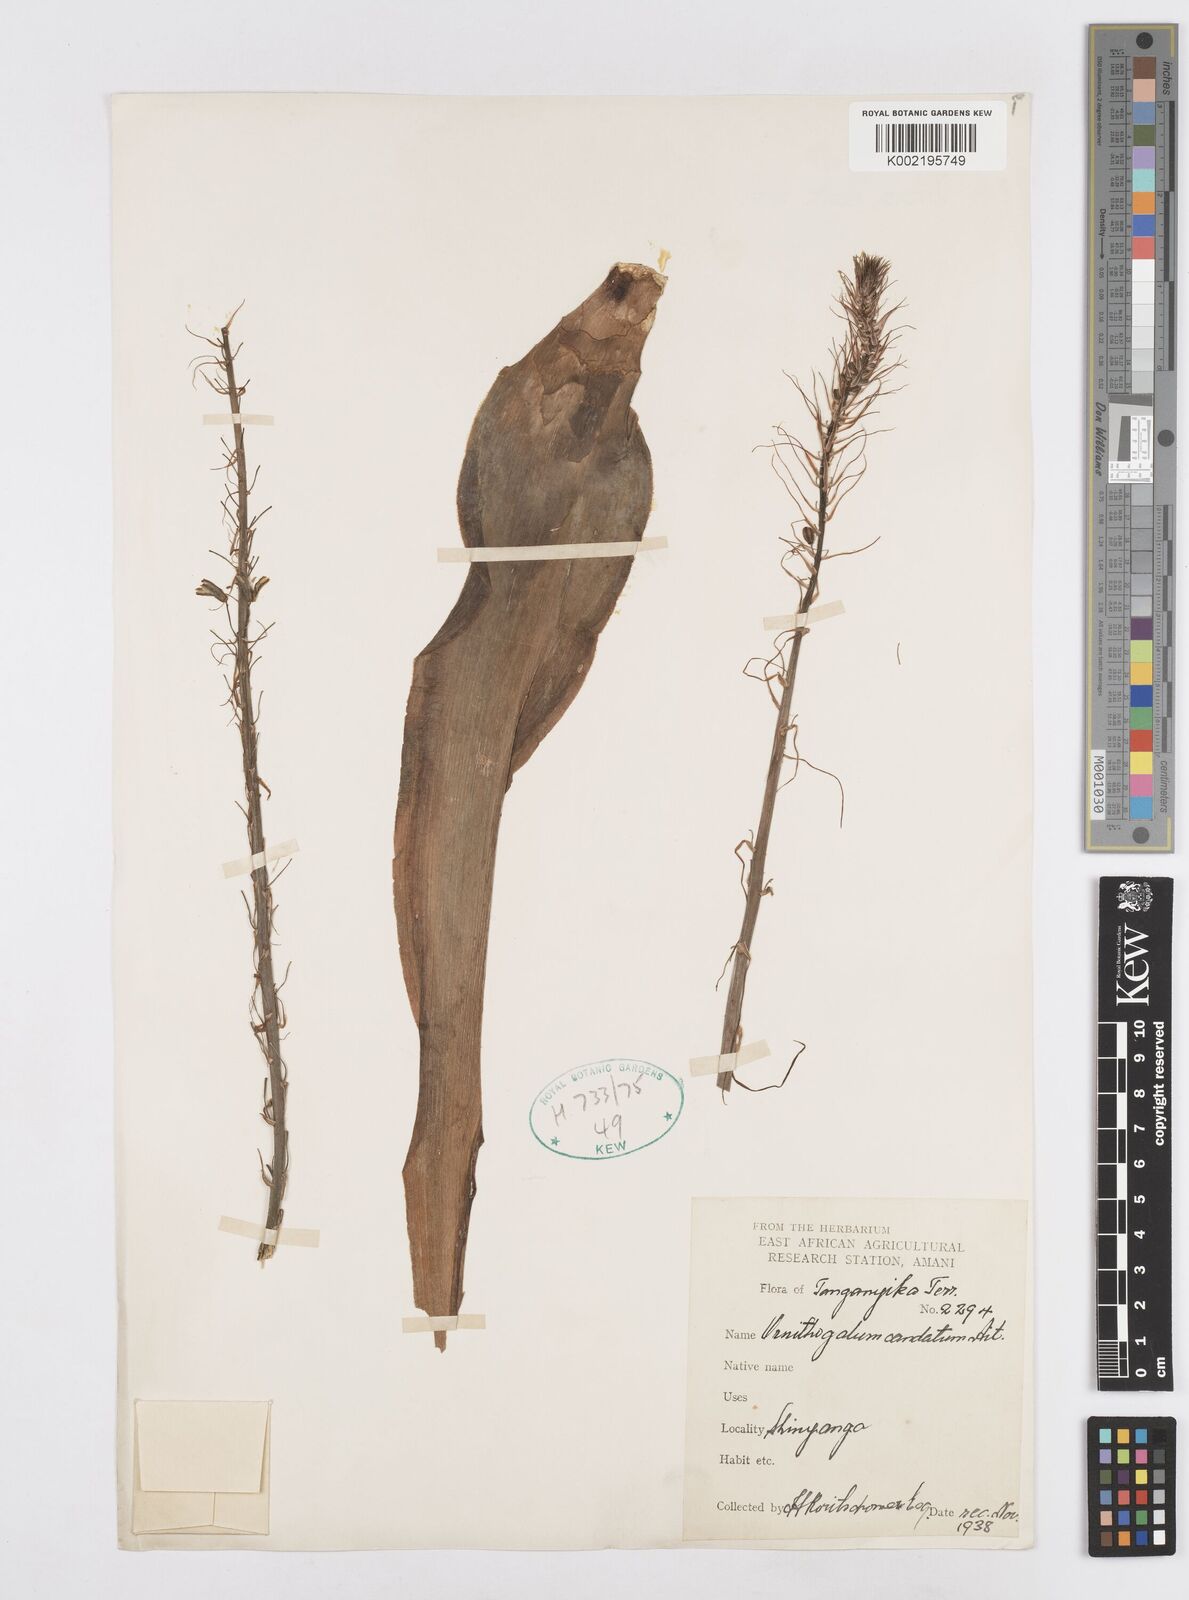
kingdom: Plantae
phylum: Tracheophyta
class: Liliopsida
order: Asparagales
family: Asparagaceae
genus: Albuca
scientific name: Albuca virens
